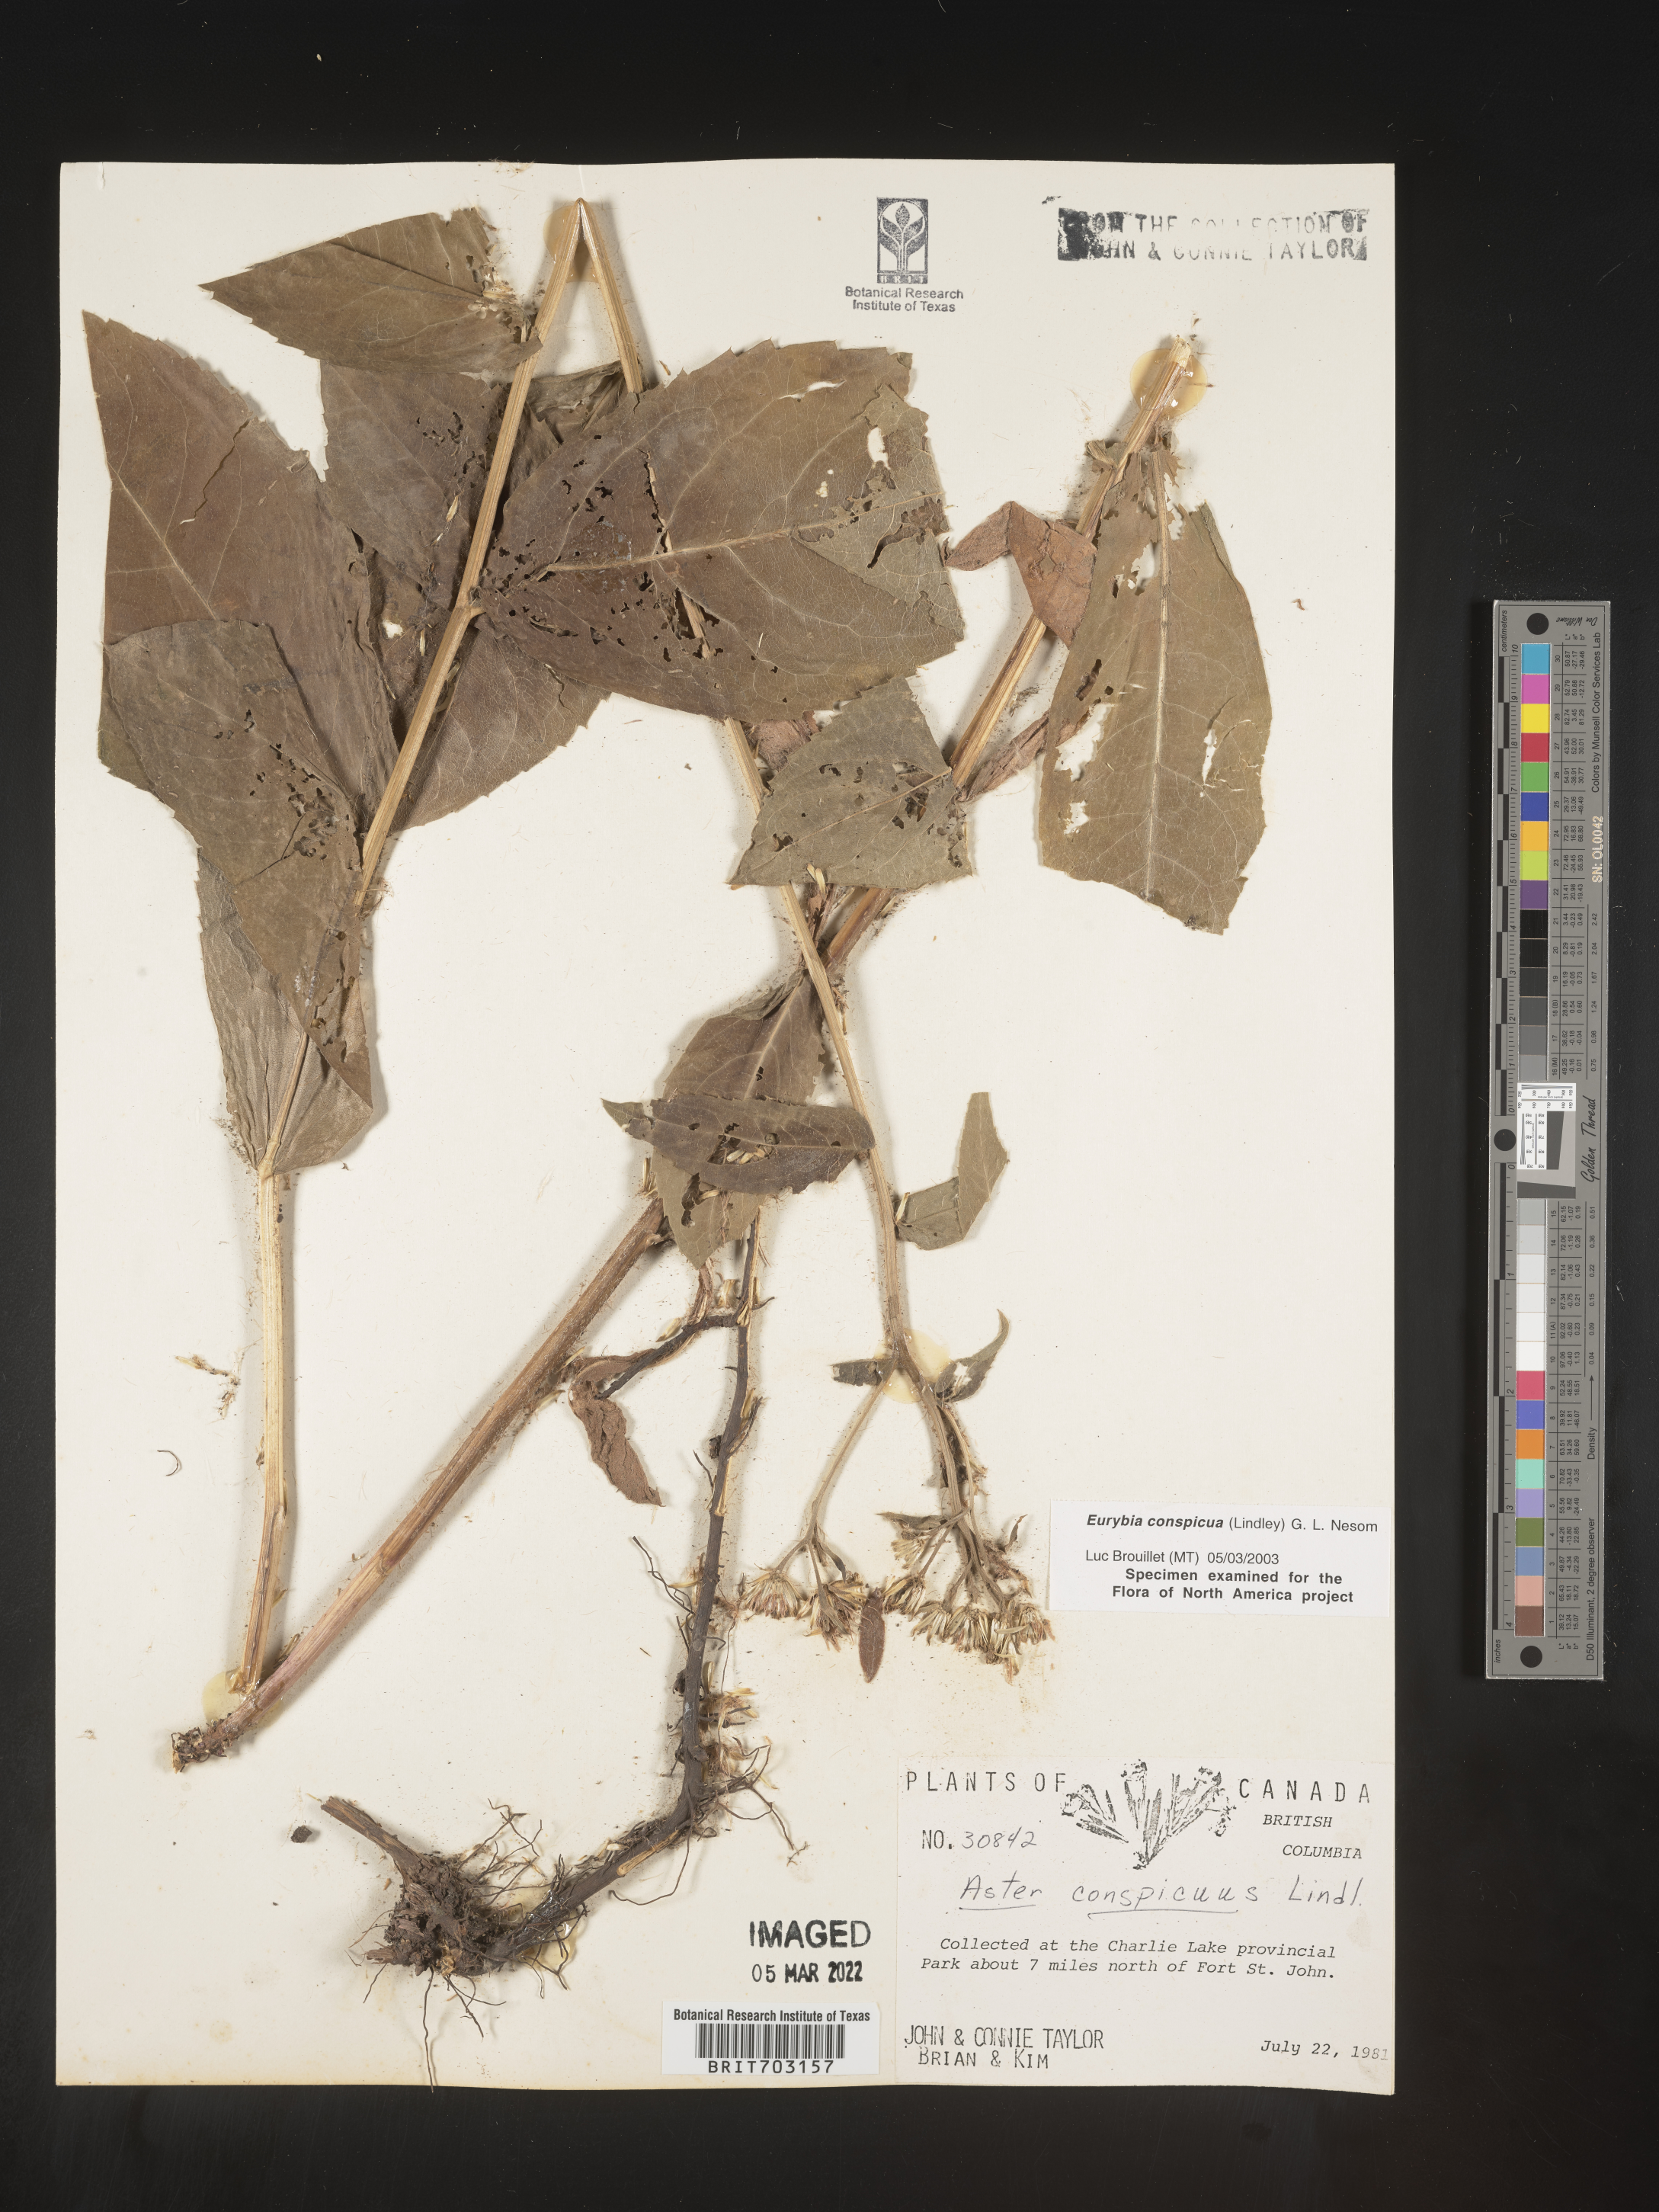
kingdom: Plantae
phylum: Tracheophyta
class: Magnoliopsida
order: Asterales
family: Asteraceae
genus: Eurybia
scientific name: Eurybia conspicua
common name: Showy aster
